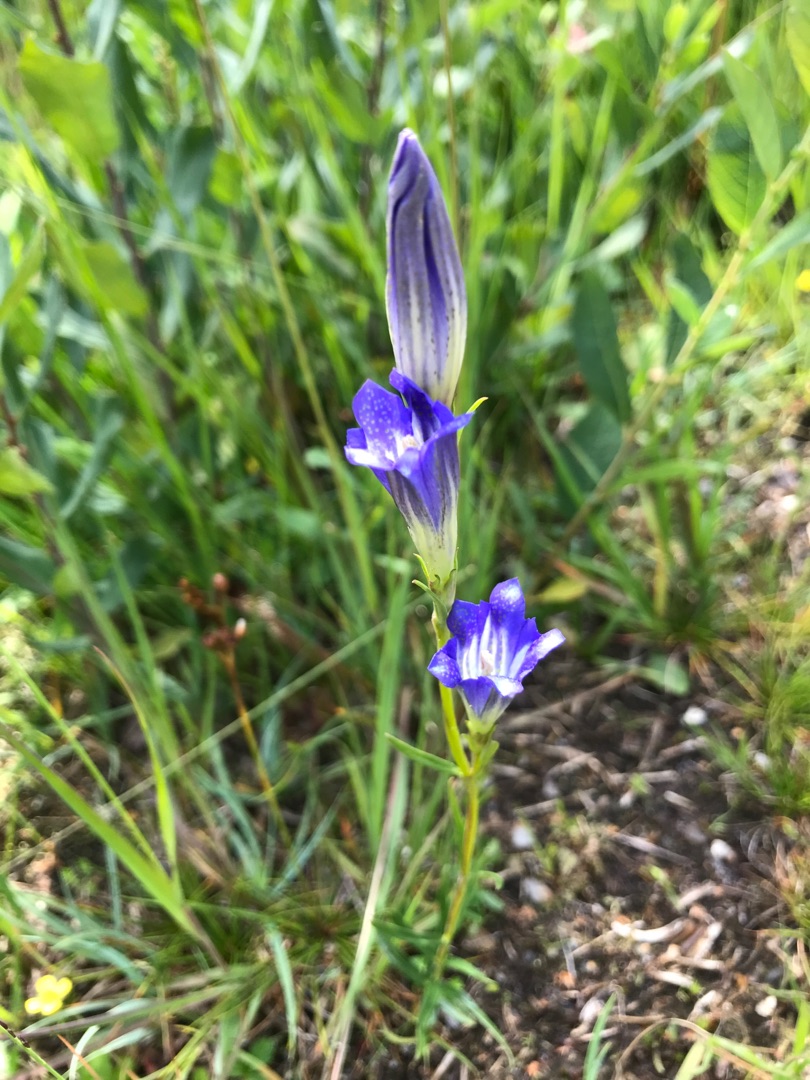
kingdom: Plantae
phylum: Tracheophyta
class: Magnoliopsida
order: Gentianales
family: Gentianaceae
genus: Gentiana
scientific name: Gentiana pneumonanthe
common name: Klokke-ensian
